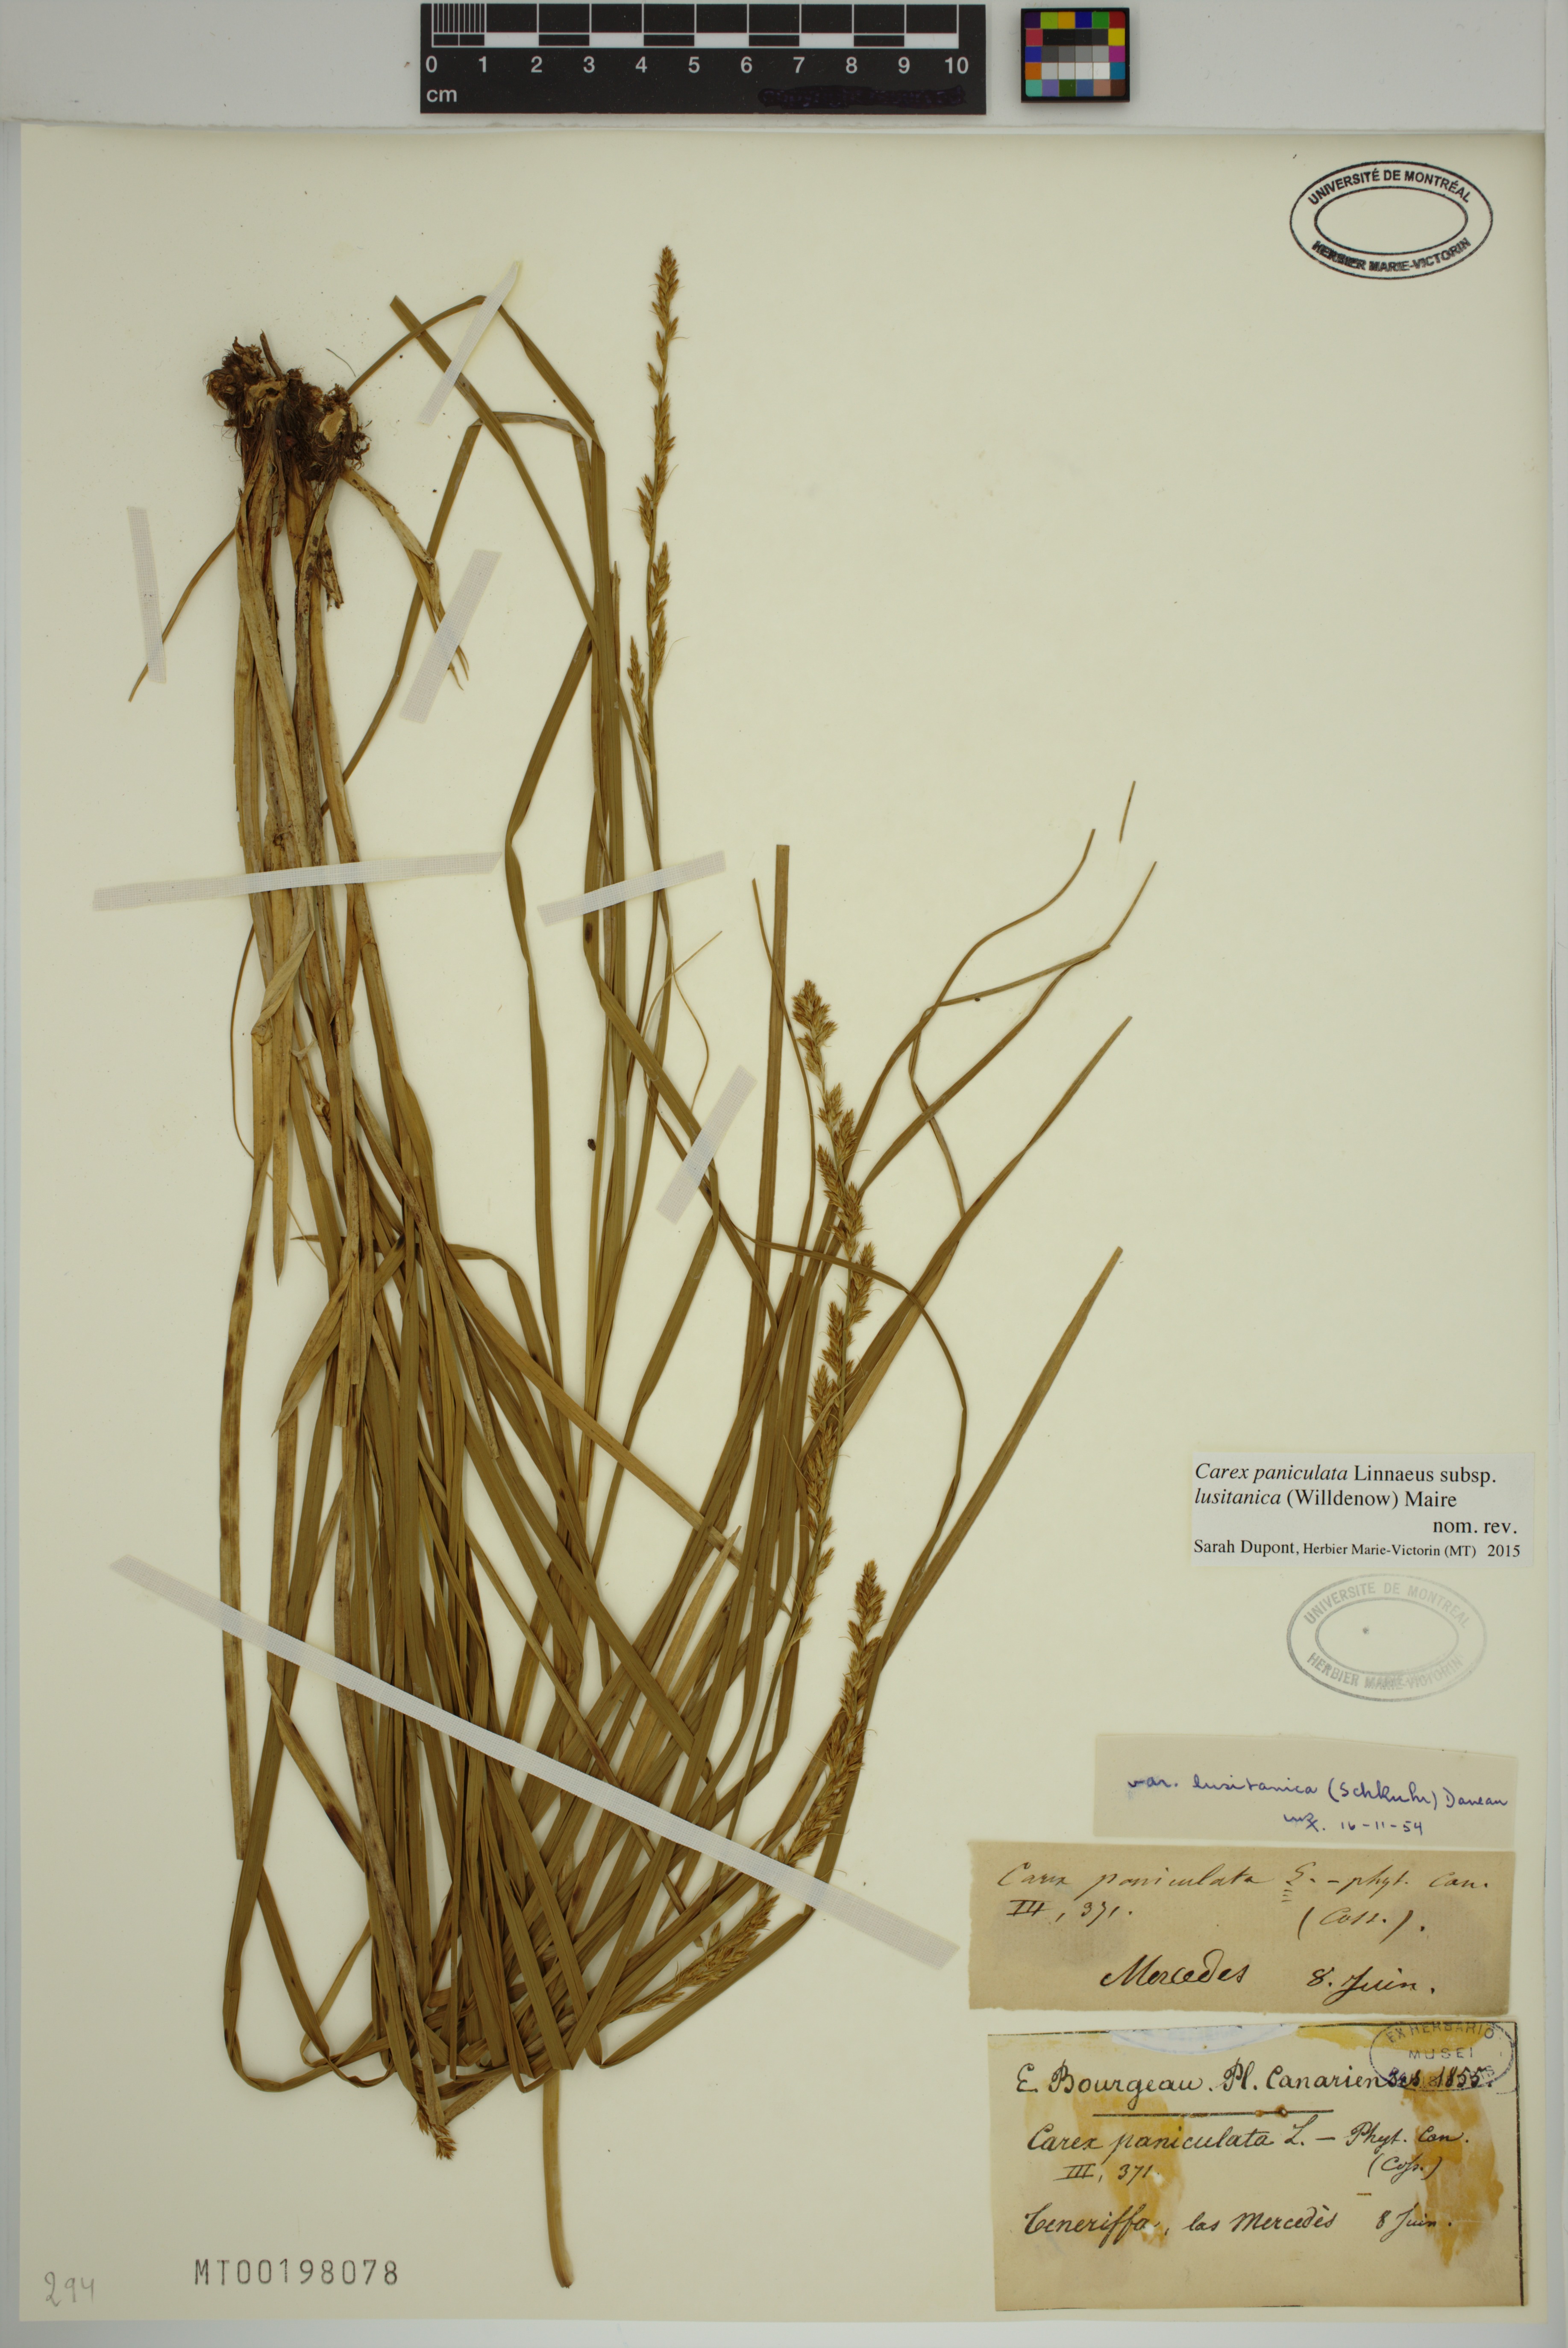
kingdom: Plantae
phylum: Tracheophyta
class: Liliopsida
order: Poales
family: Cyperaceae
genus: Carex
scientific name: Carex paniculata
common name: Greater tussock-sedge
